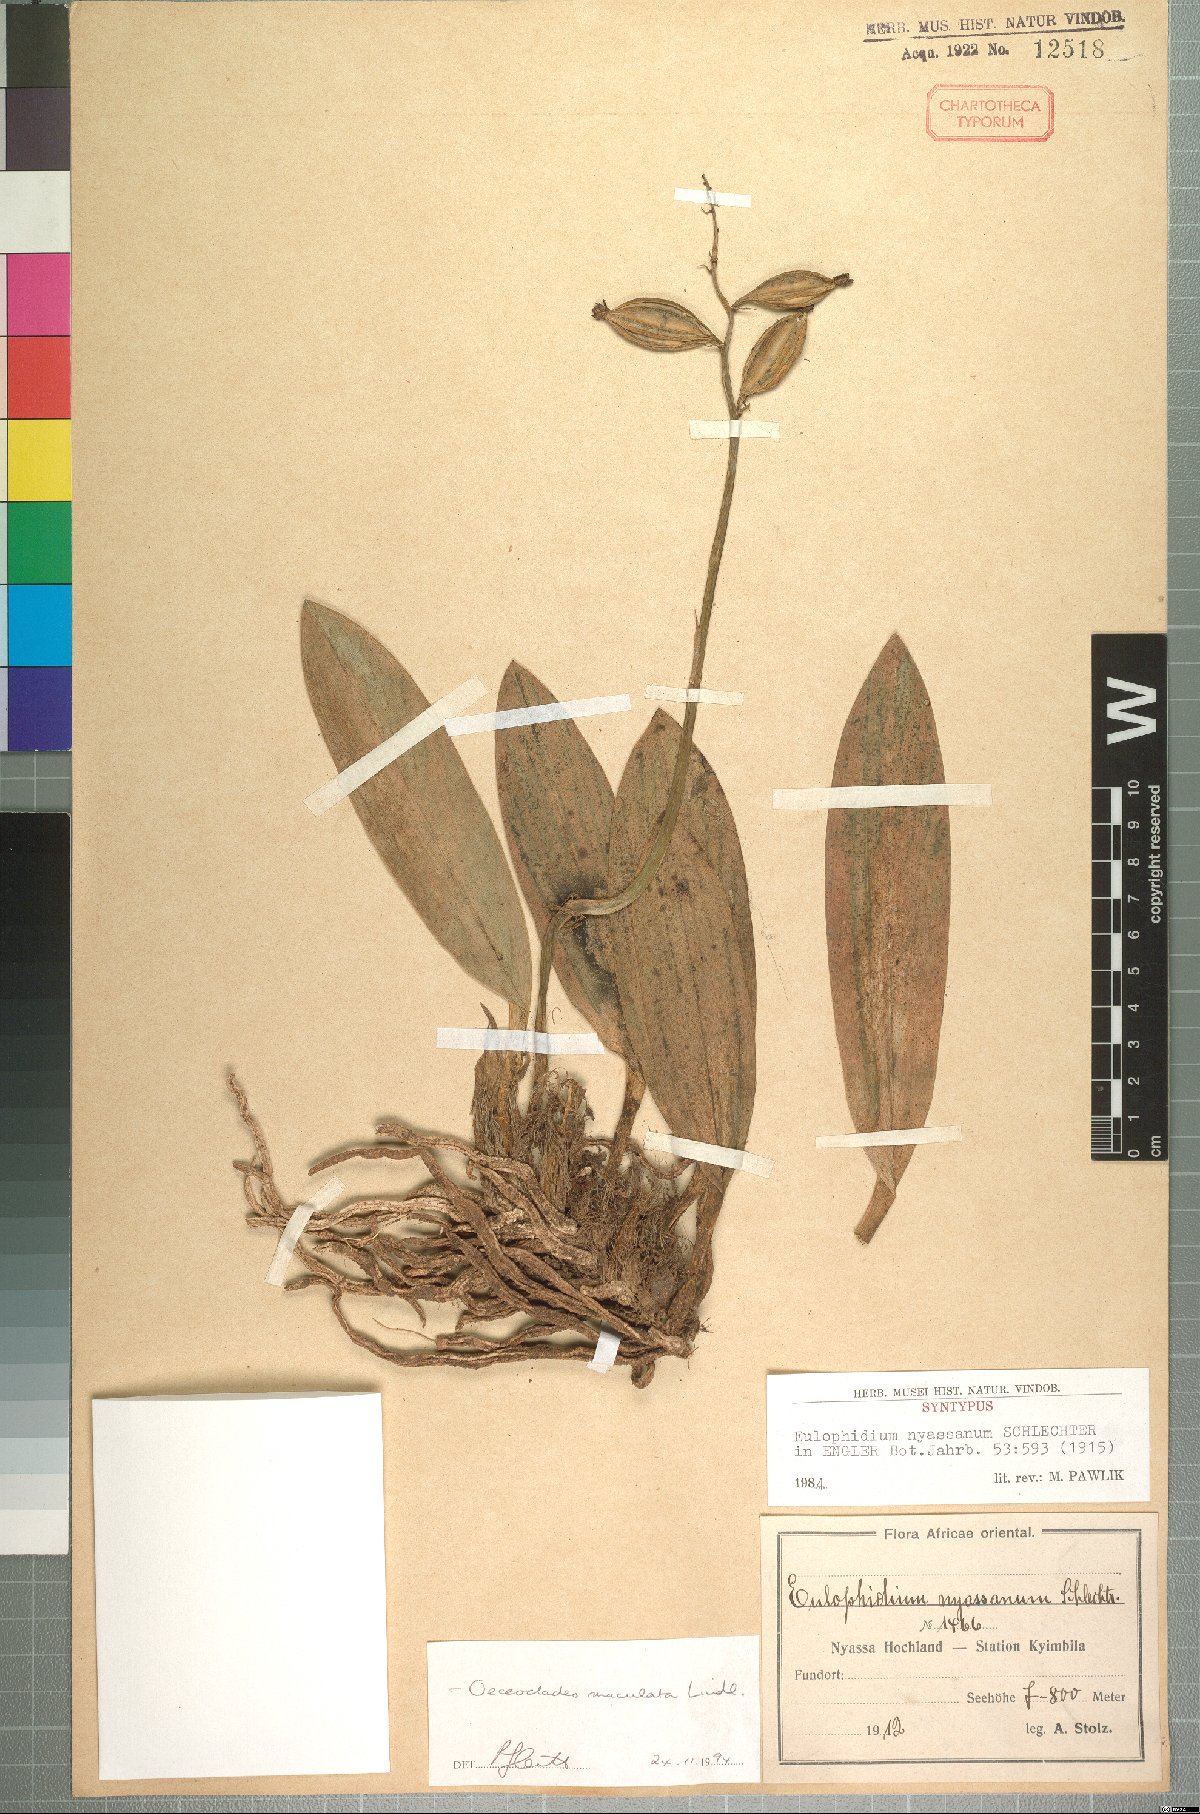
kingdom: Plantae
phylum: Tracheophyta
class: Liliopsida
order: Asparagales
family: Orchidaceae
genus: Eulophia
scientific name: Eulophia maculata
